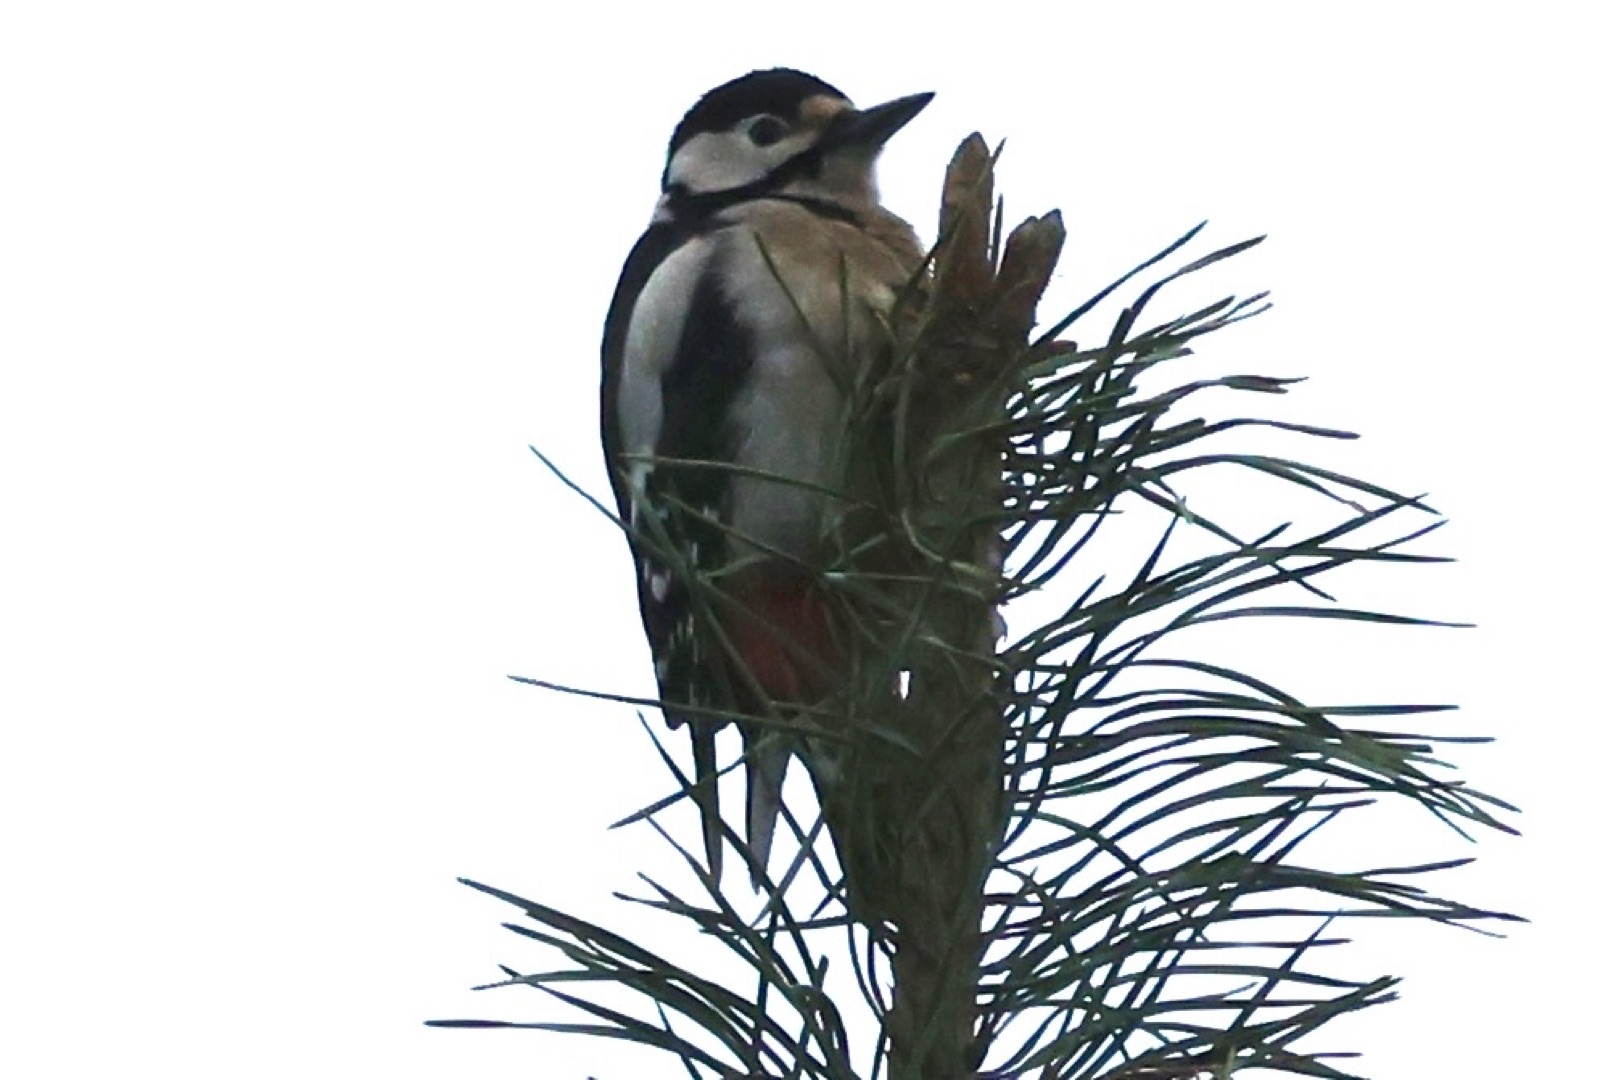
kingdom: Animalia
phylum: Chordata
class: Aves
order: Piciformes
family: Picidae
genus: Dendrocopos
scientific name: Dendrocopos major
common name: Stor flagspætte
